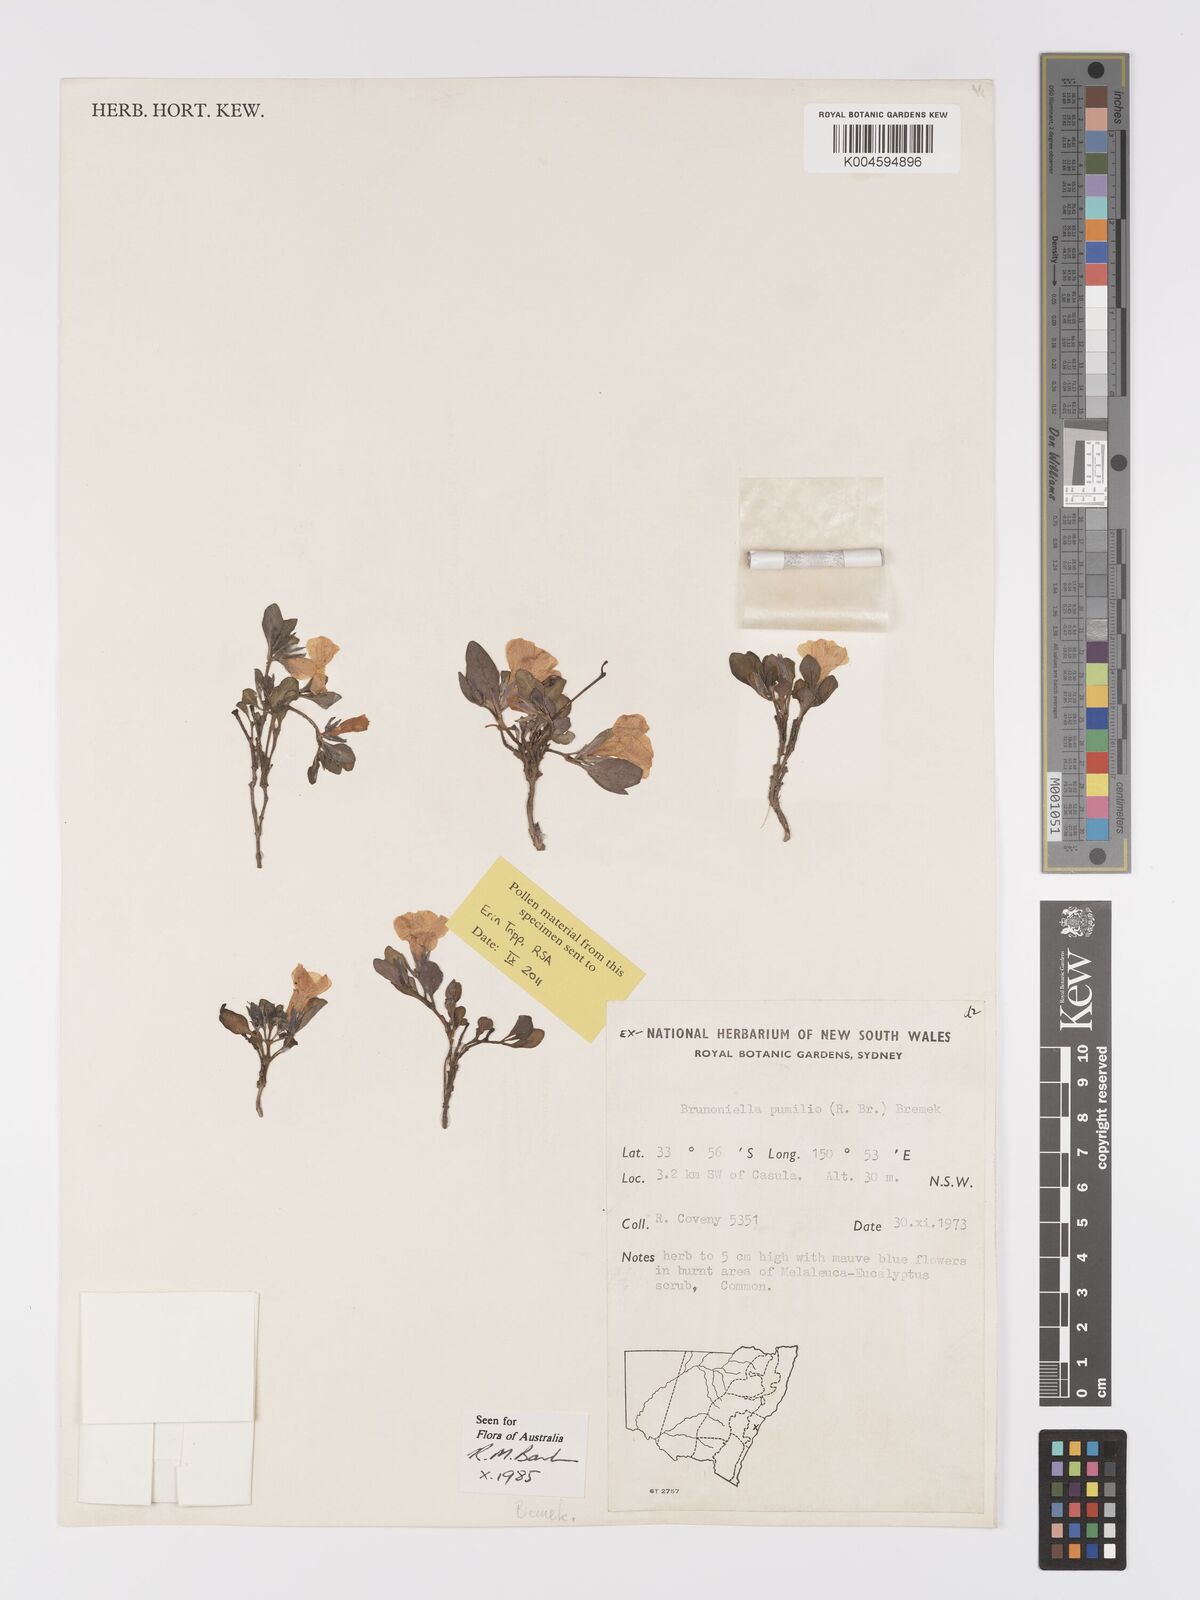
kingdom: Plantae
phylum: Tracheophyta
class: Magnoliopsida
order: Lamiales
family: Acanthaceae
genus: Brunoniella
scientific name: Brunoniella pumilio
